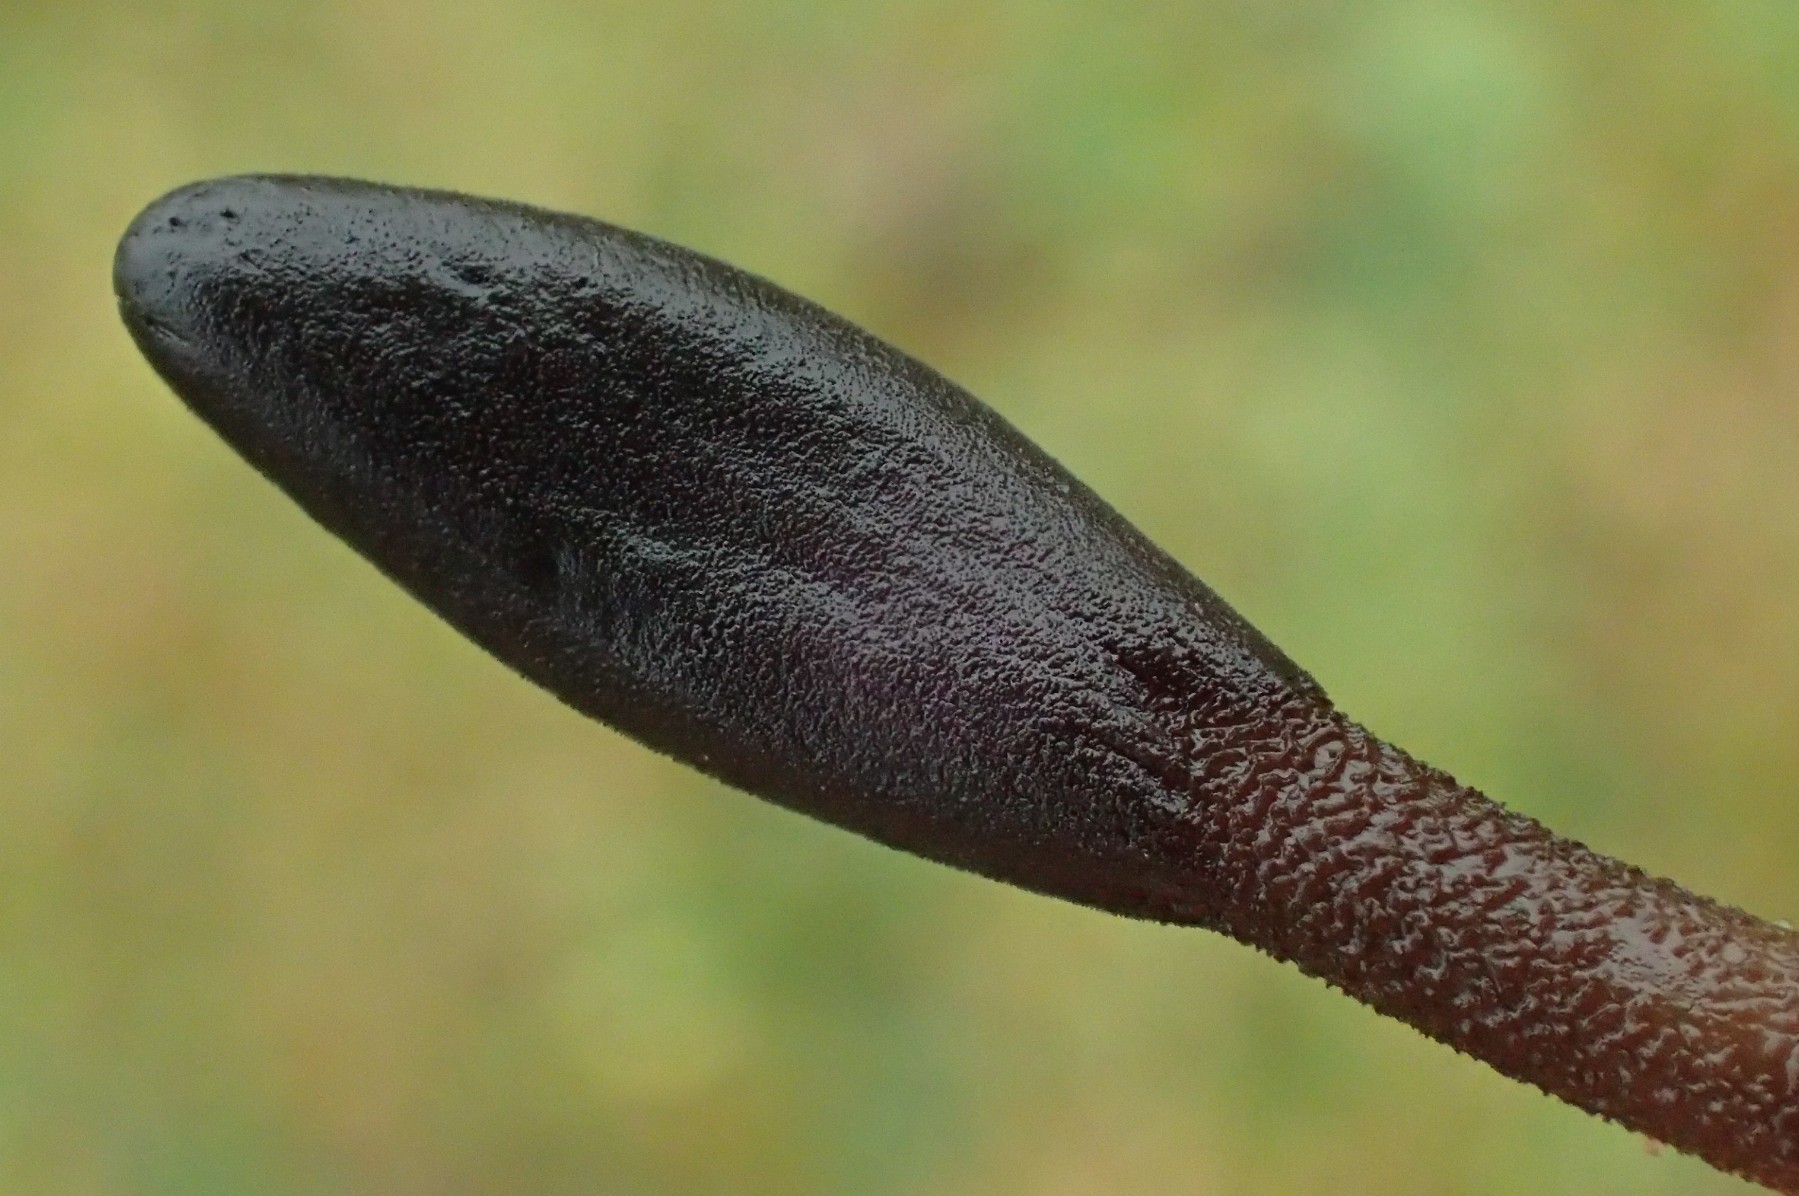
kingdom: Fungi
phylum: Ascomycota
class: Geoglossomycetes
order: Geoglossales
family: Geoglossaceae
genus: Hemileucoglossum
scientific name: Hemileucoglossum elongatum
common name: småsporet jordtunge
